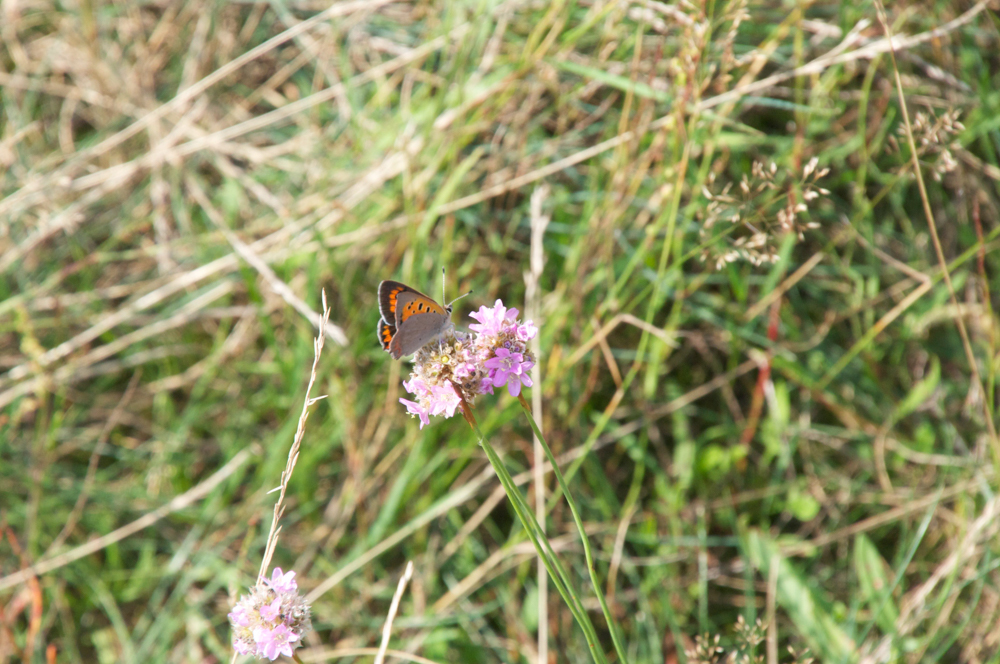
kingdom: Animalia
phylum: Arthropoda
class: Insecta
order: Lepidoptera
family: Lycaenidae
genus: Lycaena
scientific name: Lycaena phlaeas
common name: Small copper
